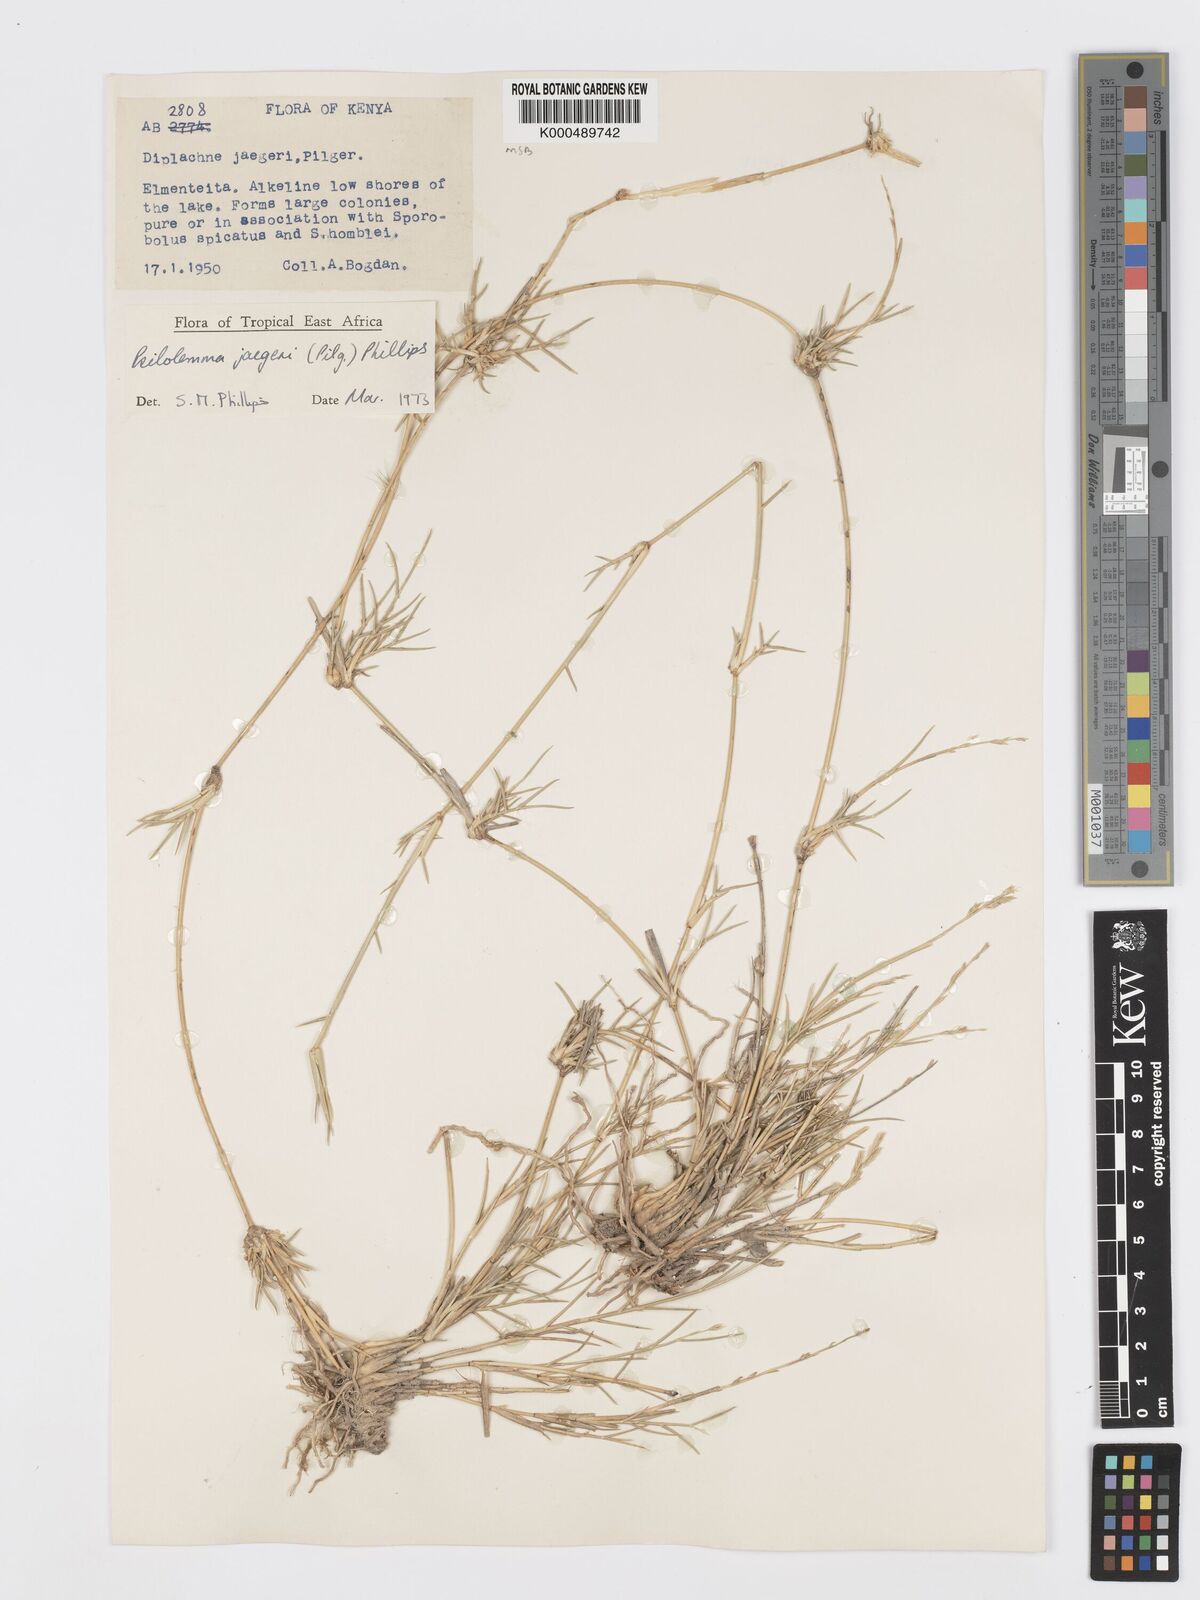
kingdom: Plantae
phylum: Tracheophyta
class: Liliopsida
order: Poales
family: Poaceae
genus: Psilolemma
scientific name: Psilolemma jaegeri
